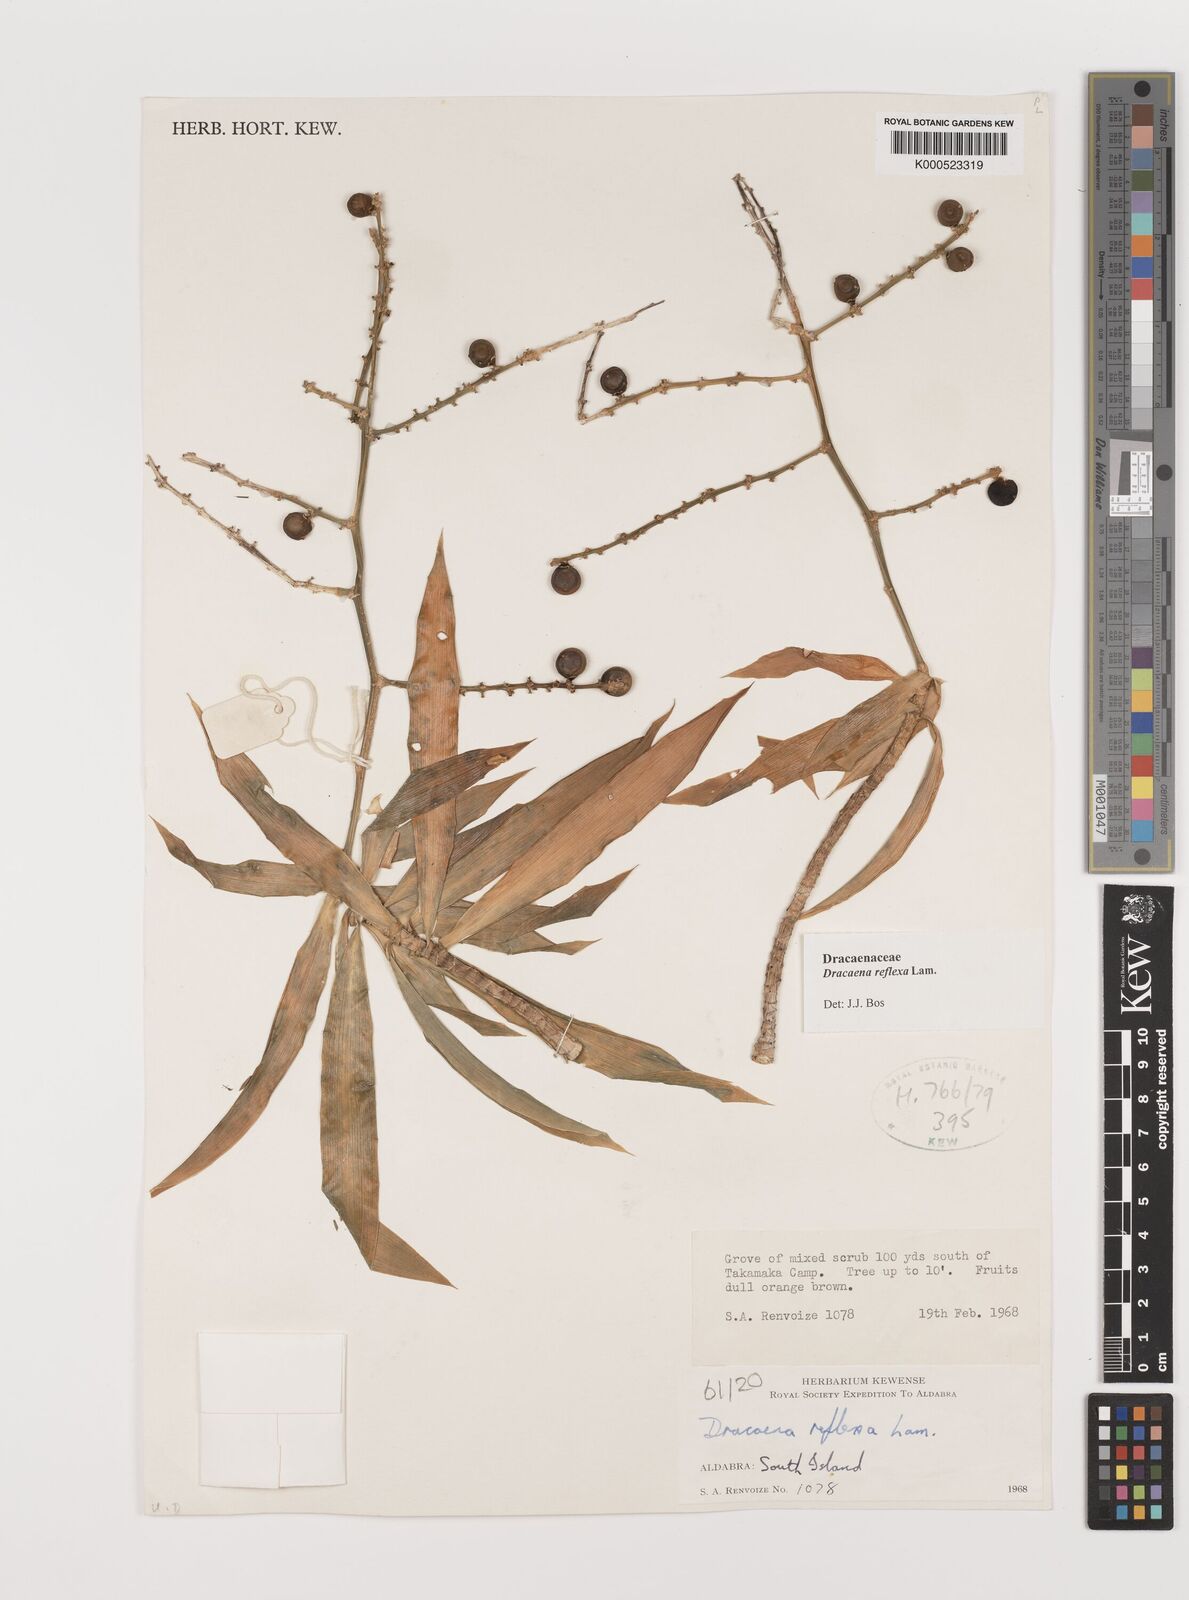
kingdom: Plantae
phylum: Tracheophyta
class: Liliopsida
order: Asparagales
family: Asparagaceae
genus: Dracaena
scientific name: Dracaena reflexa
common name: Song-of-india
